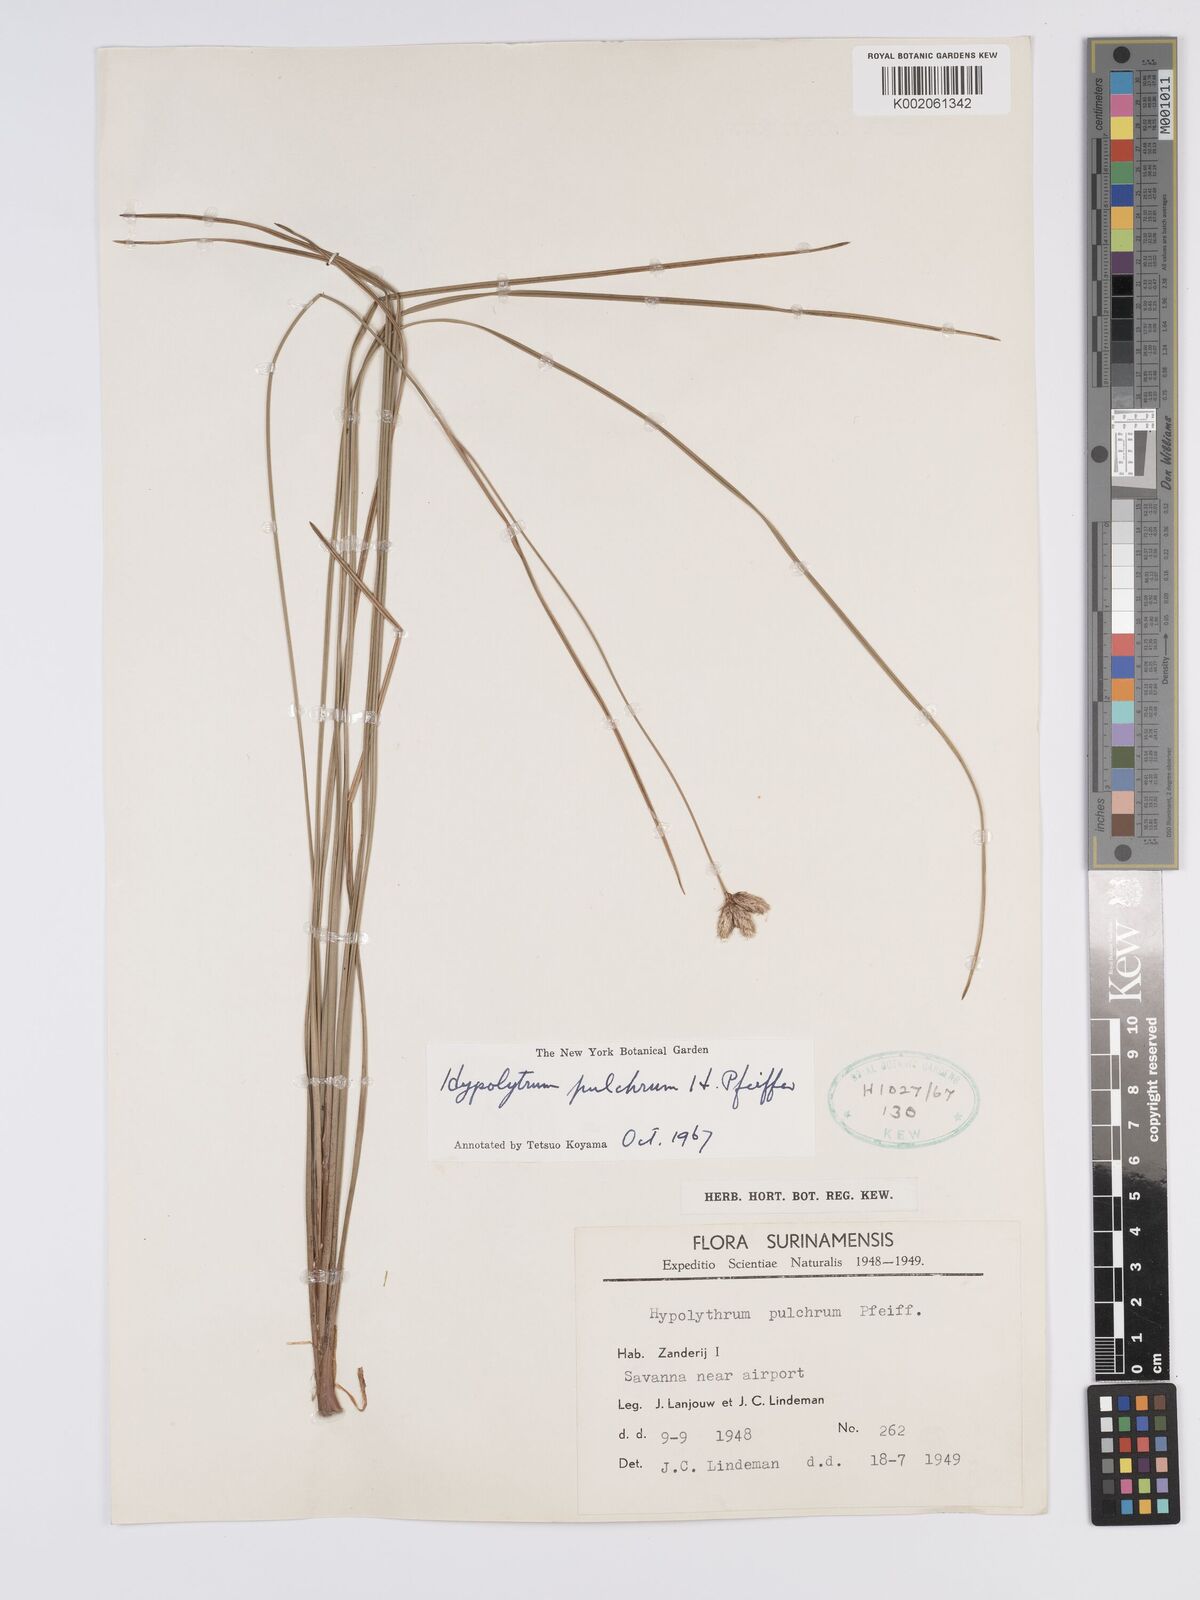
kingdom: Plantae
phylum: Tracheophyta
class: Liliopsida
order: Poales
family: Cyperaceae
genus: Hypolytrum
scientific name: Hypolytrum pulchrum
